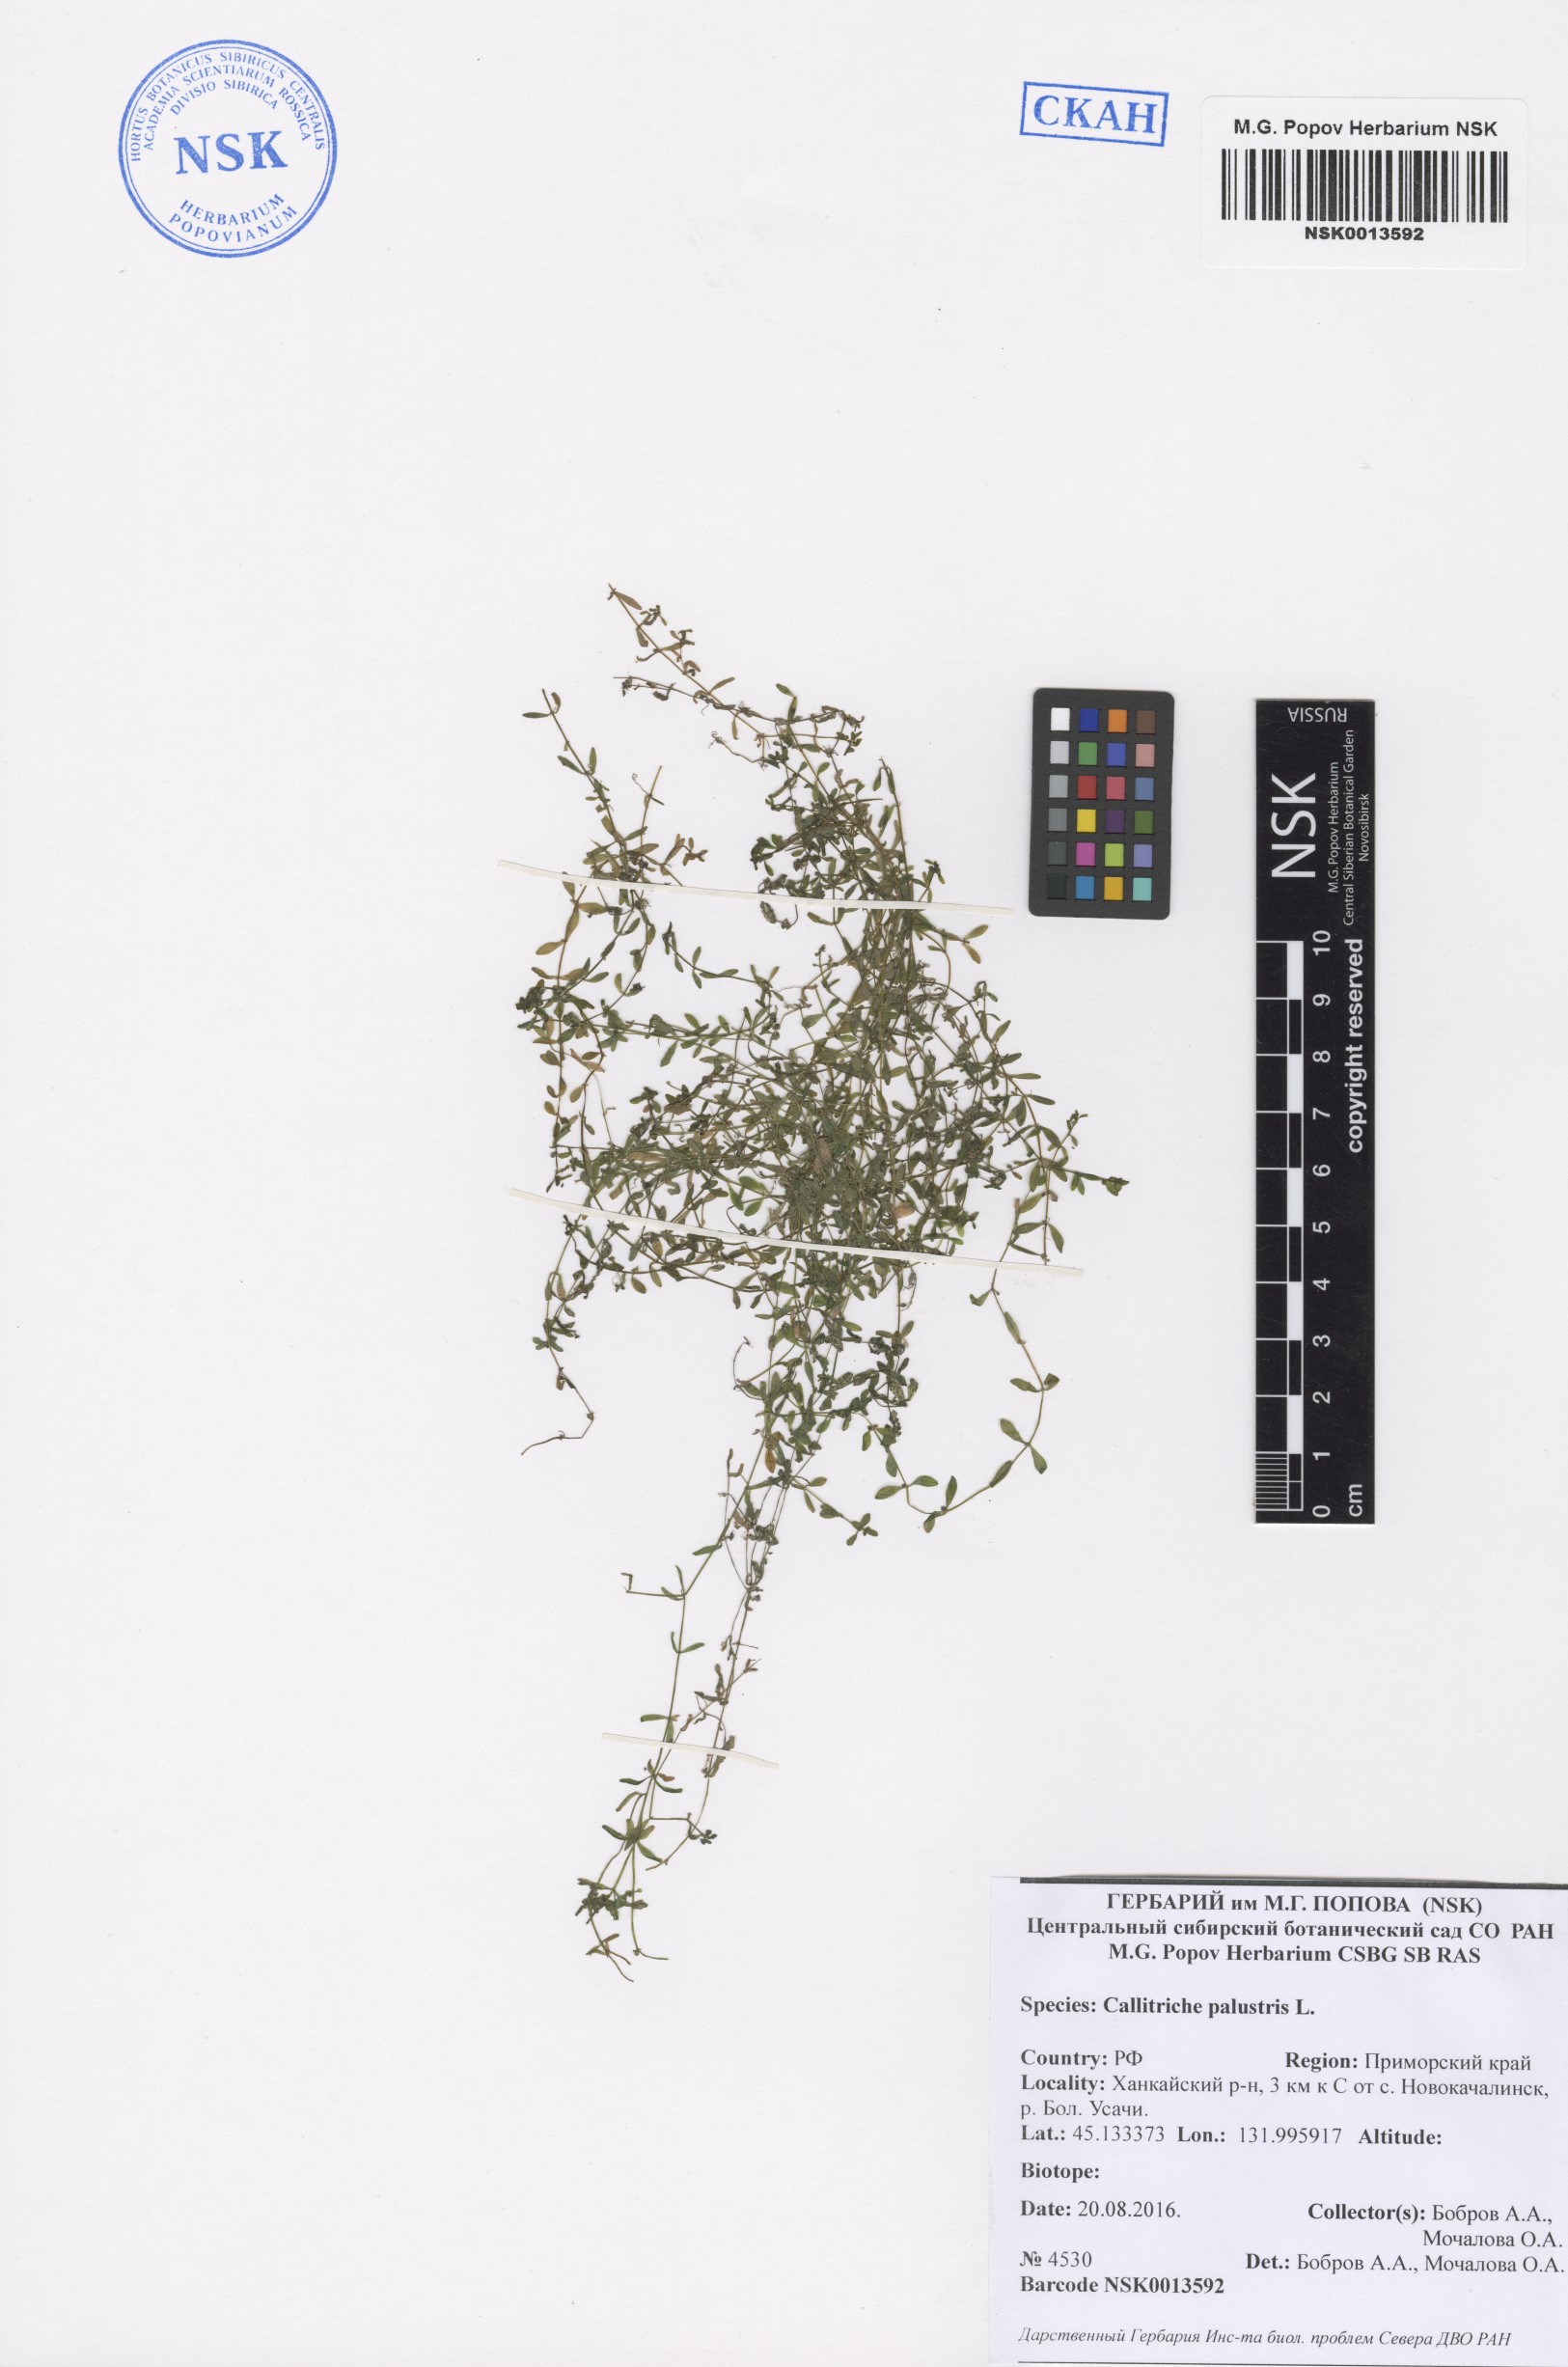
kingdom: Plantae
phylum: Tracheophyta
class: Magnoliopsida
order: Lamiales
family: Plantaginaceae
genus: Callitriche
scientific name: Callitriche palustris
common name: Spring water-starwort
